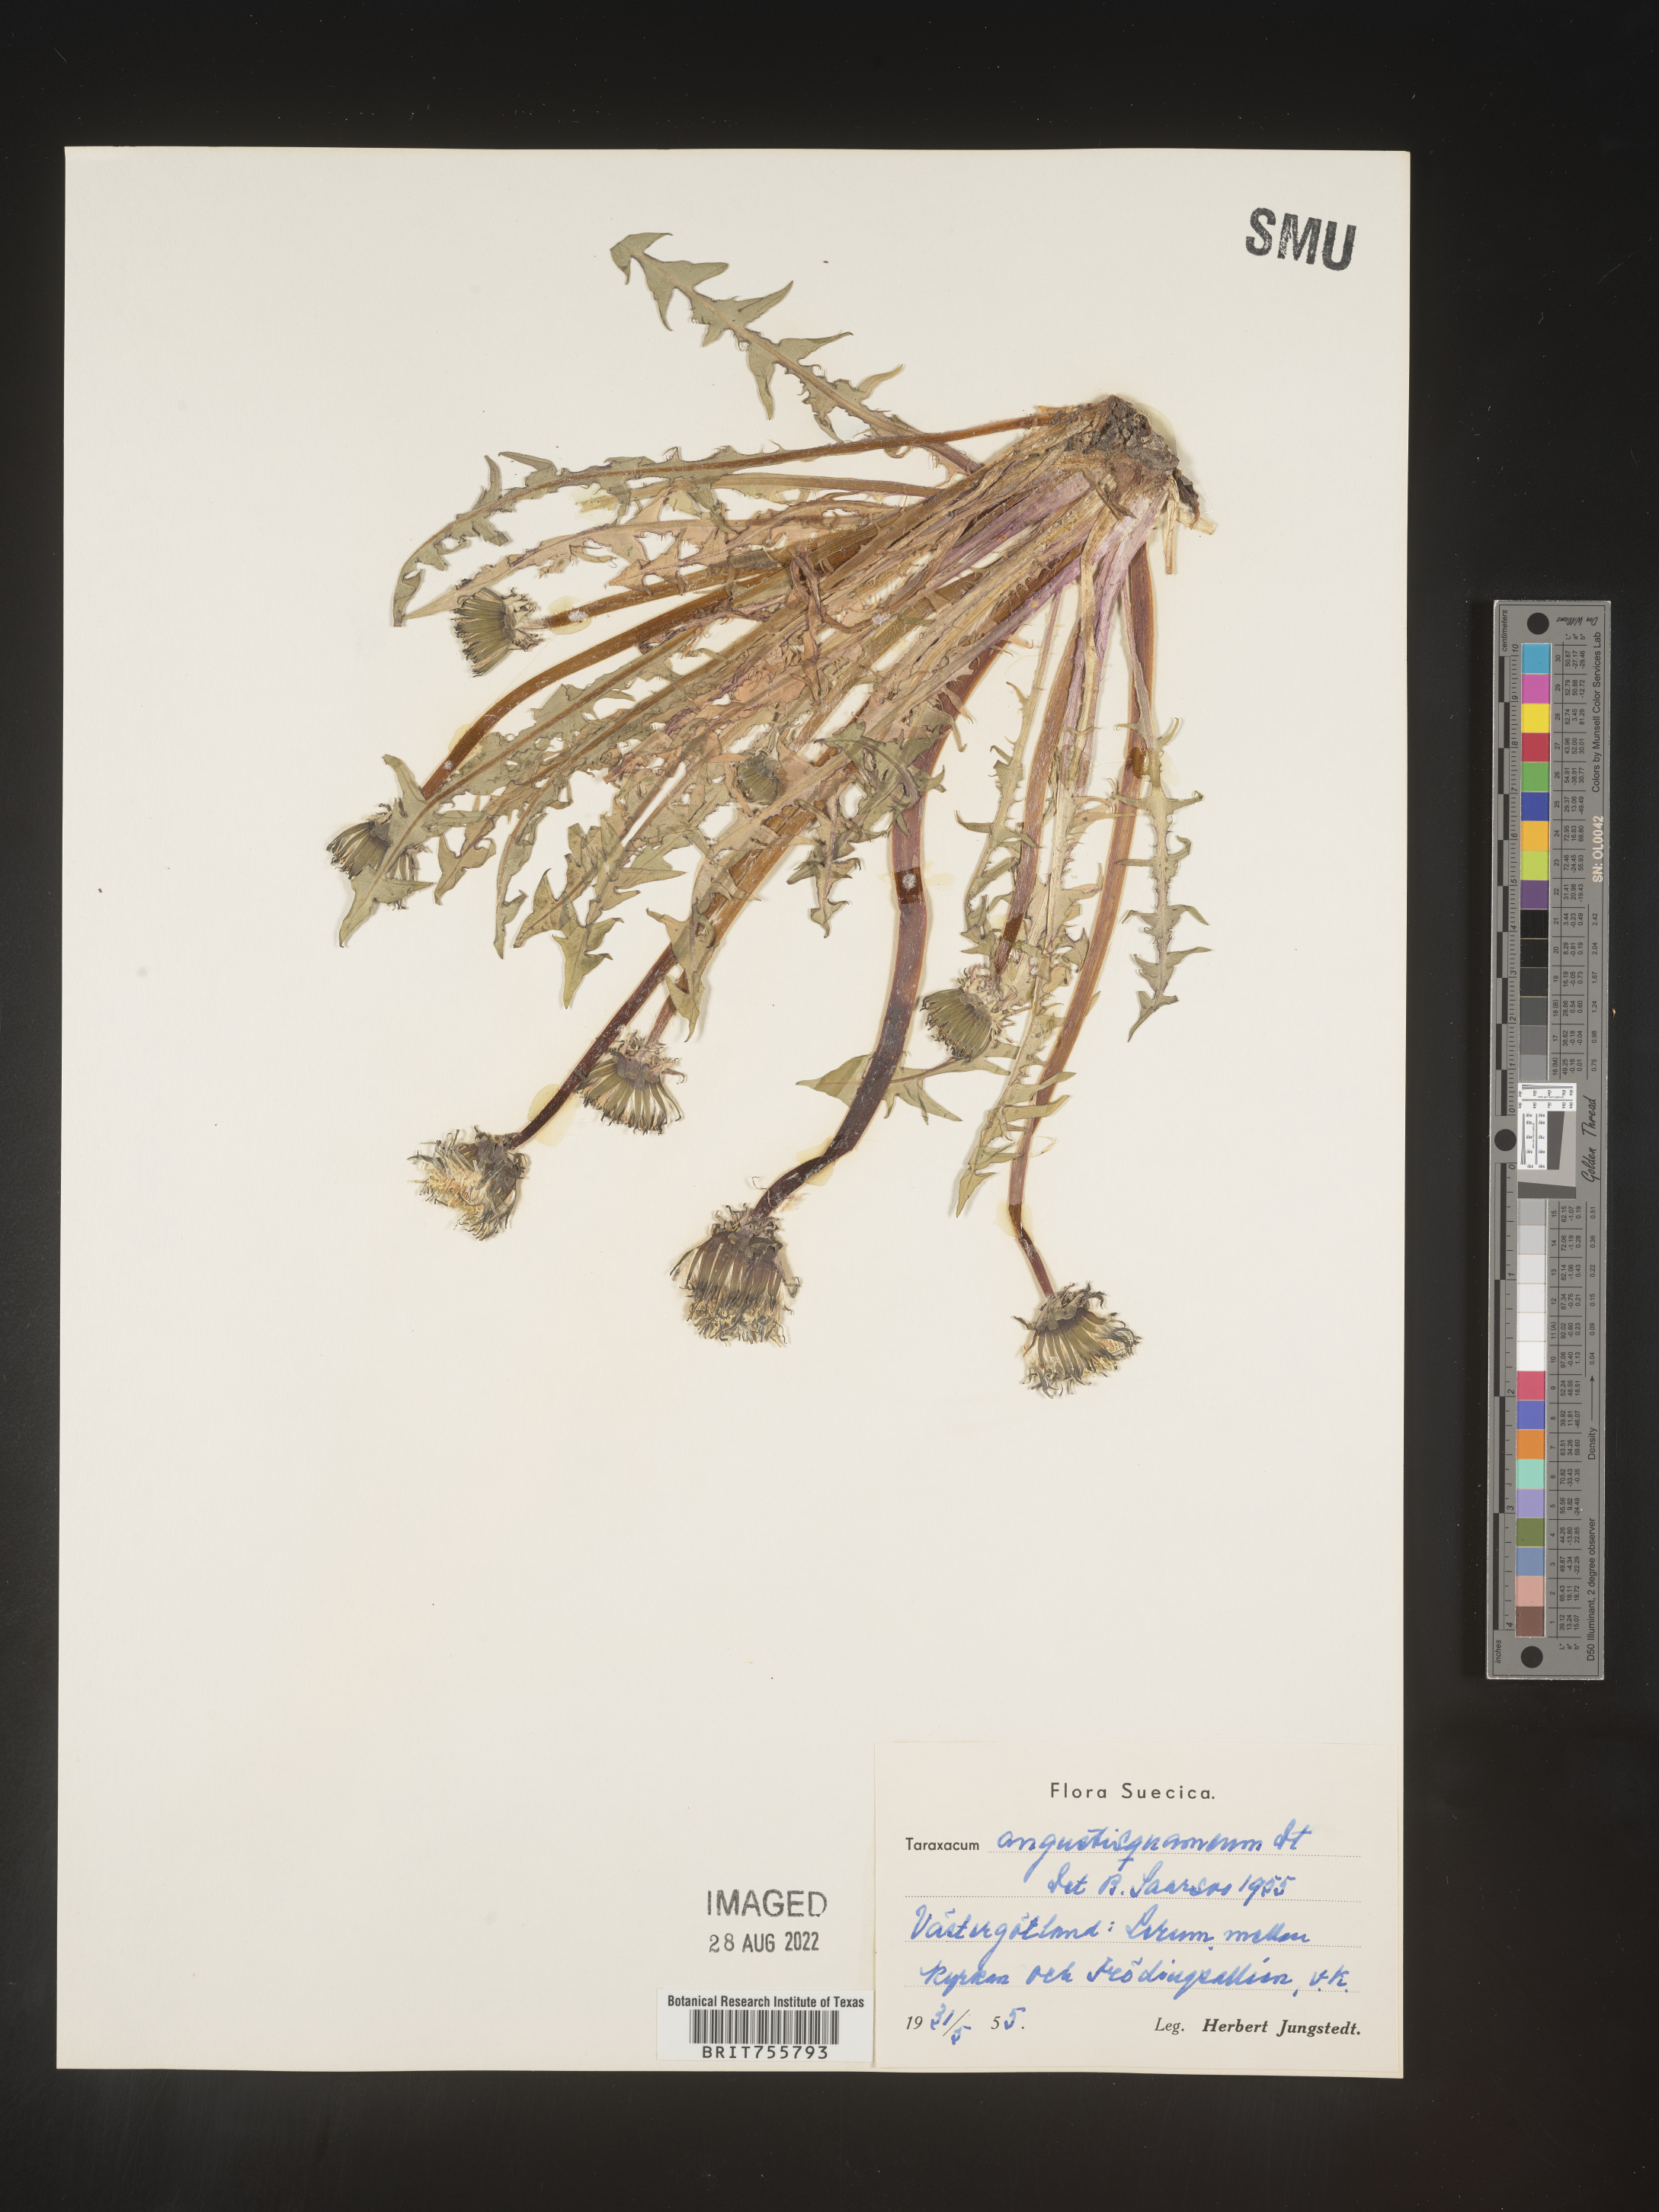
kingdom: Plantae
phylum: Tracheophyta
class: Magnoliopsida
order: Asterales
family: Asteraceae
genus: Taraxacum
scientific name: Taraxacum
